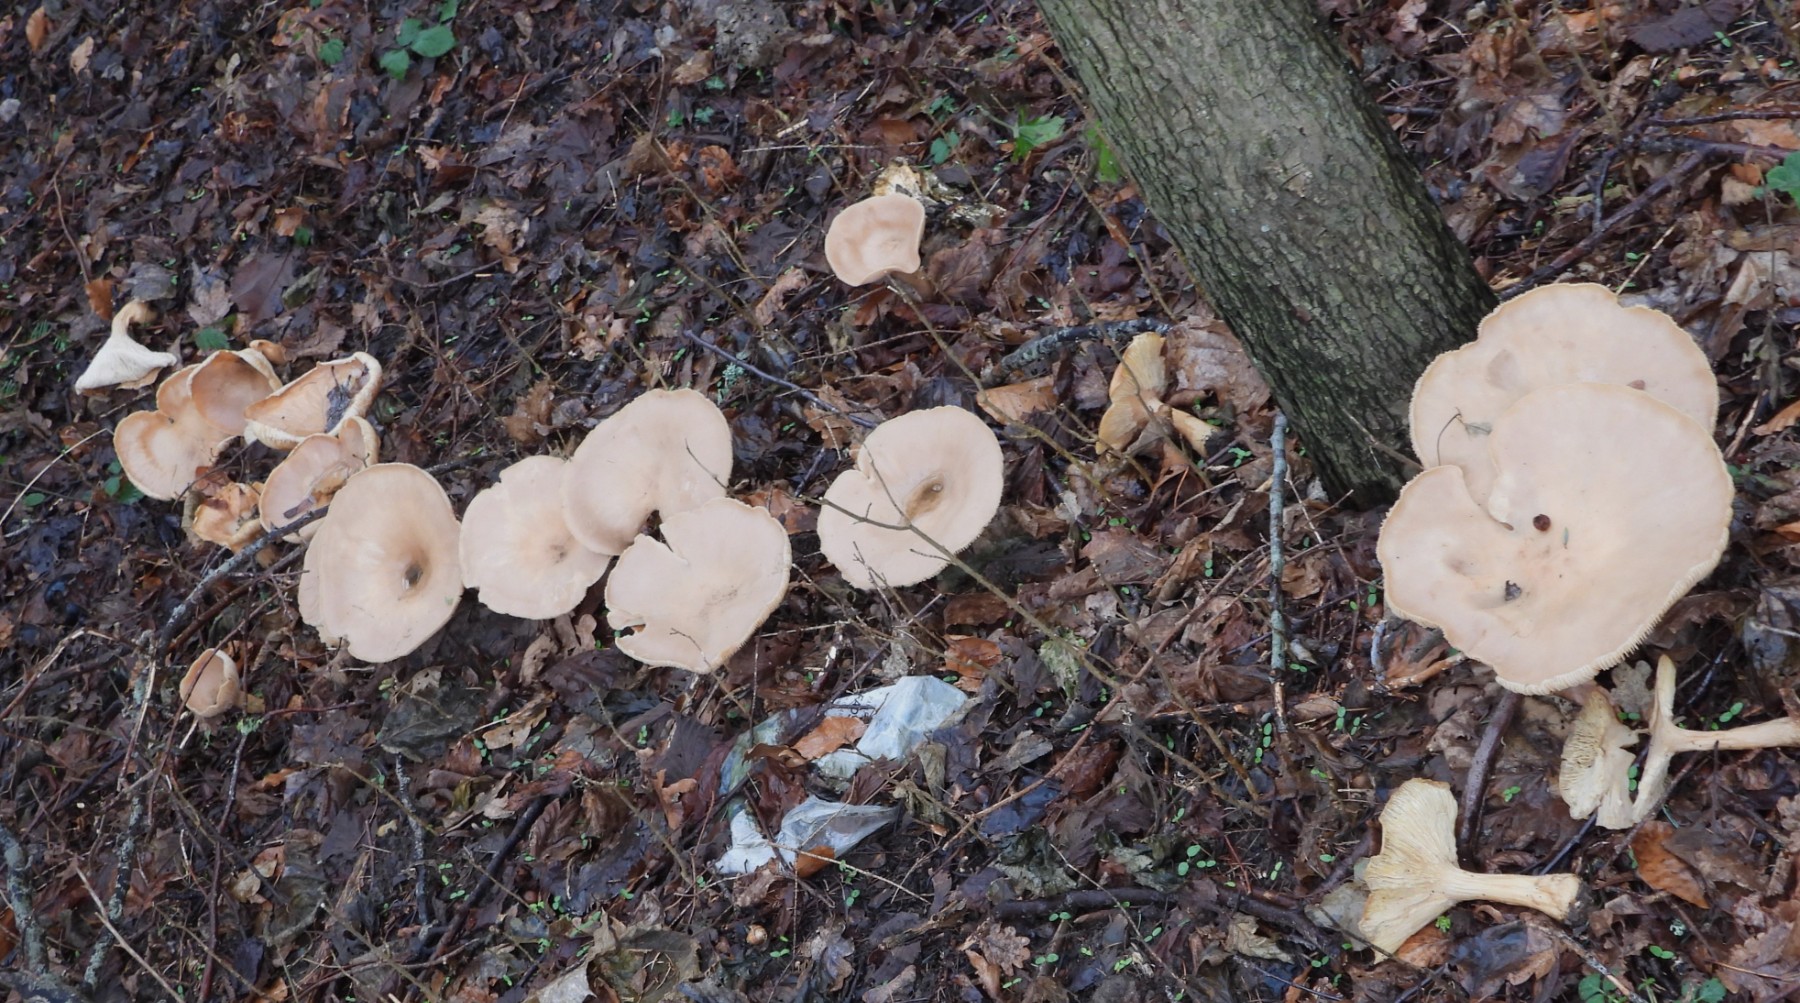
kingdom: Fungi
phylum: Basidiomycota
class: Agaricomycetes
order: Agaricales
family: Tricholomataceae
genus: Infundibulicybe
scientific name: Infundibulicybe geotropa
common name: stor tragthat
